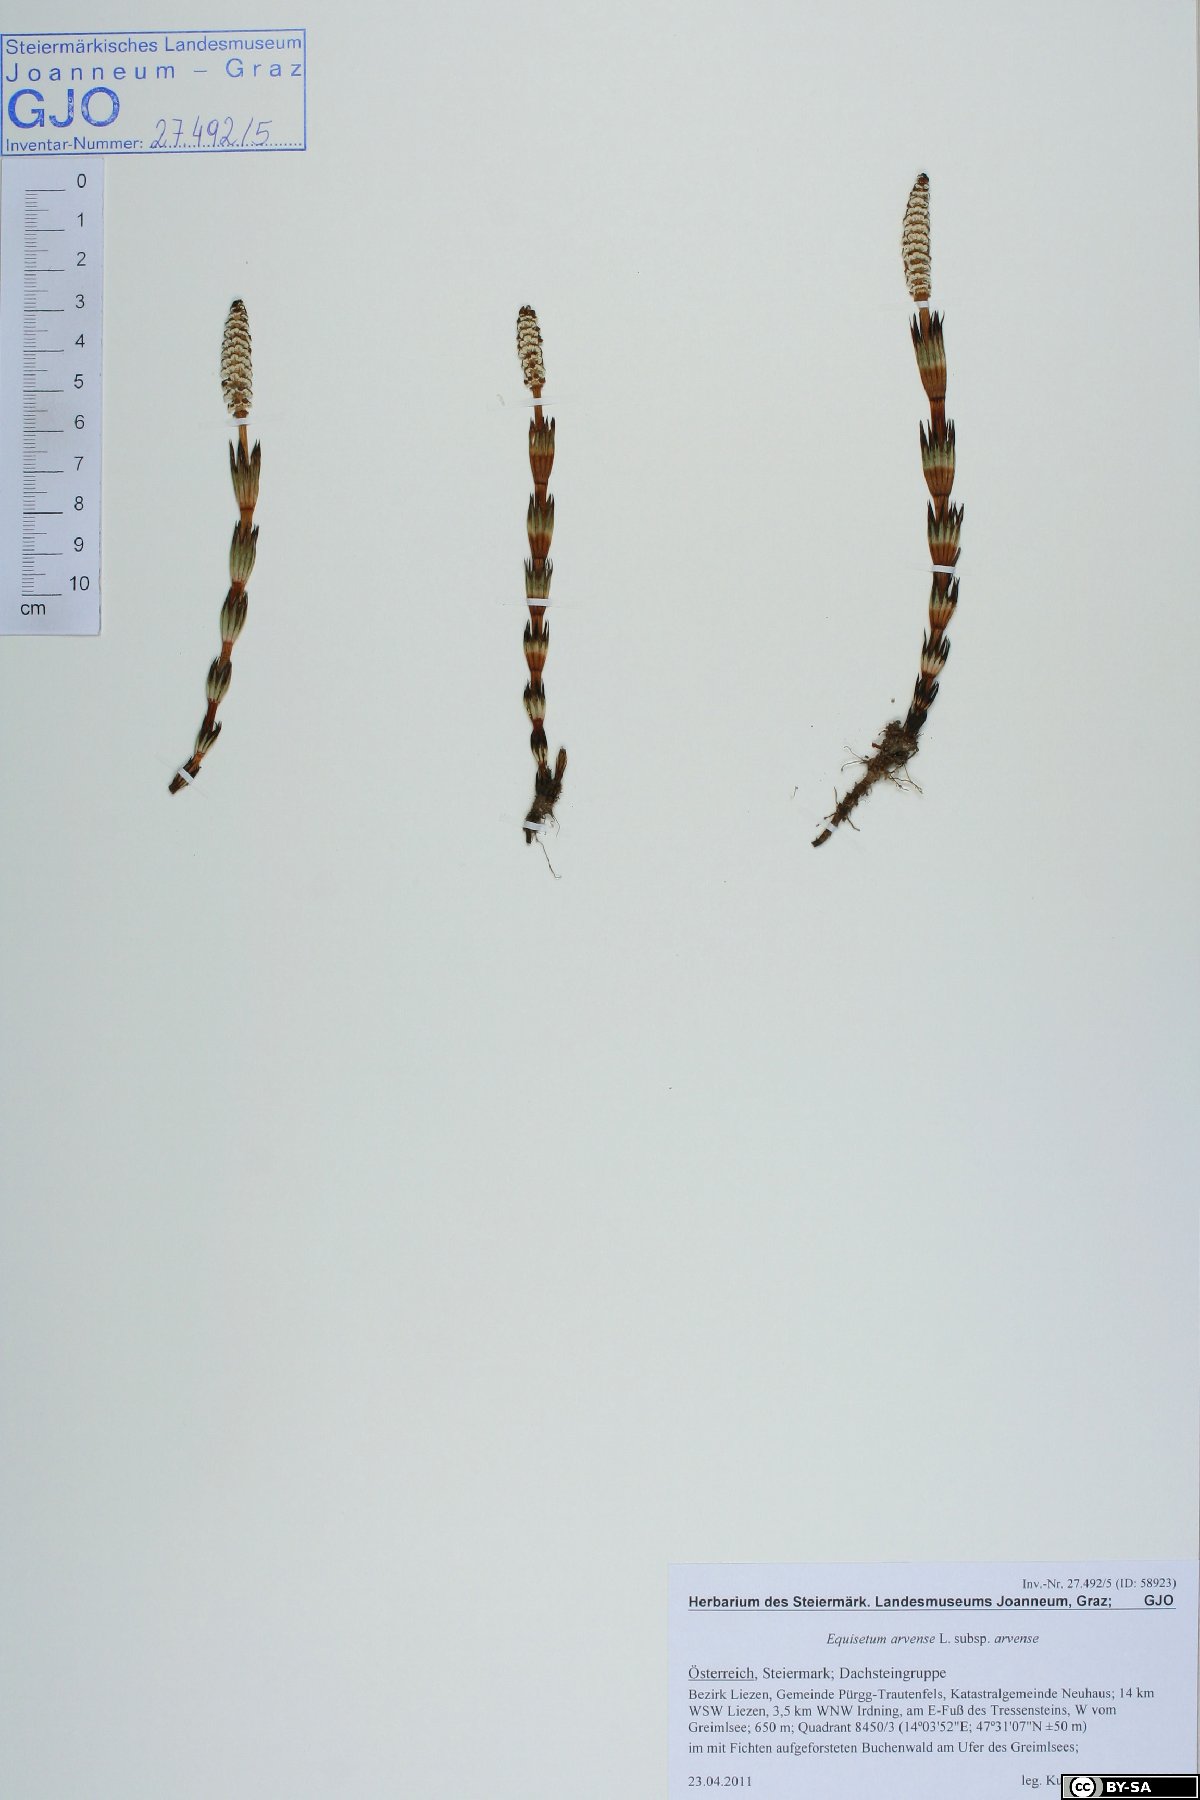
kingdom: Plantae
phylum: Tracheophyta
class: Polypodiopsida
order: Equisetales
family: Equisetaceae
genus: Equisetum
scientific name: Equisetum arvense
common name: Field horsetail
